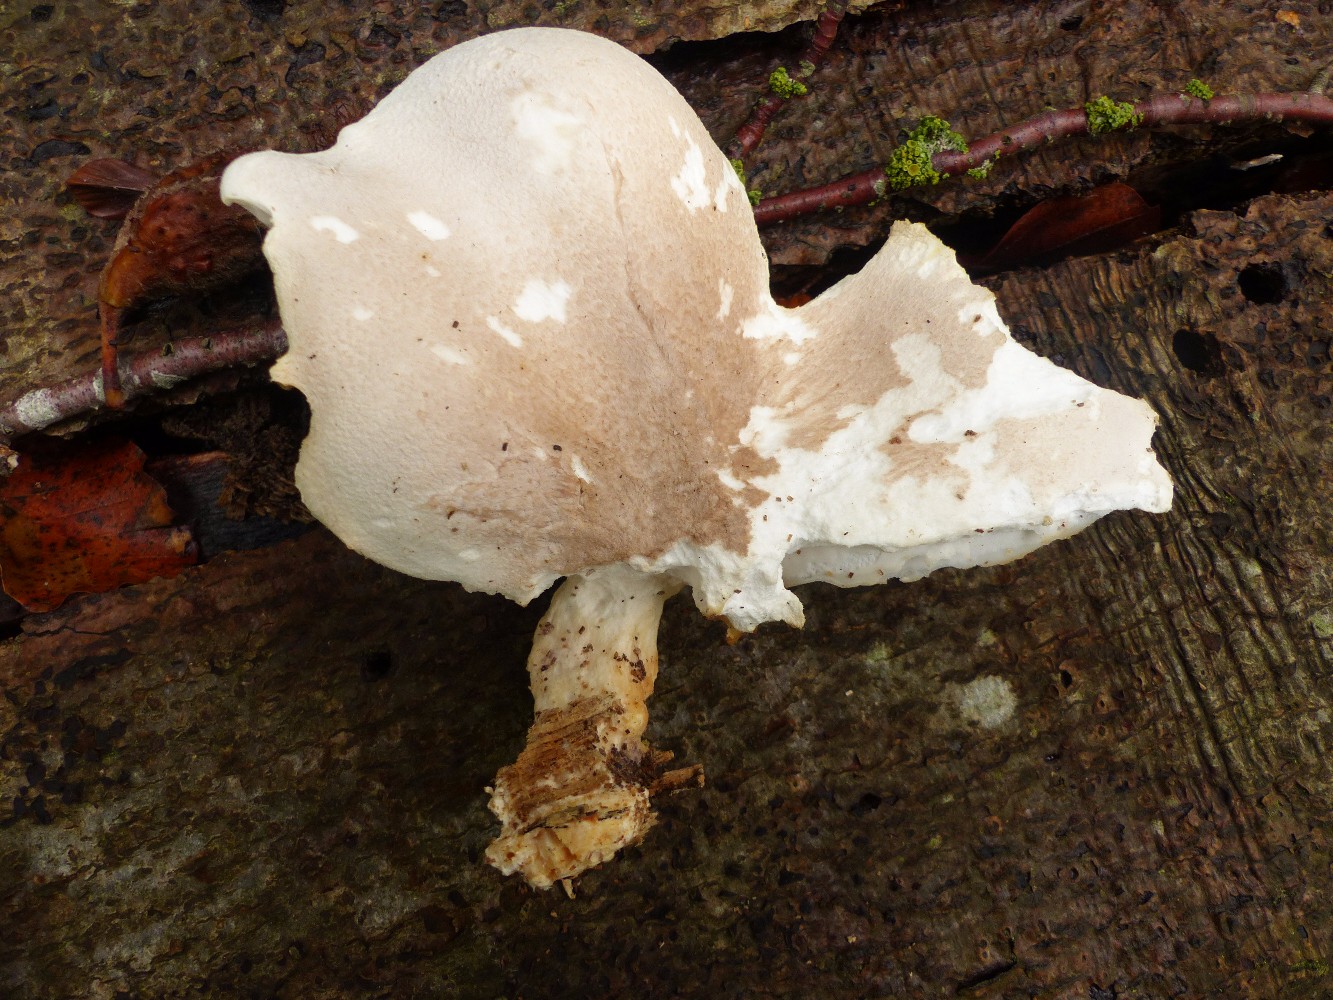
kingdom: Fungi
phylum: Basidiomycota
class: Agaricomycetes
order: Agaricales
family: Pleurotaceae
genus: Pleurotus
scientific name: Pleurotus dryinus
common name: korkagtig østershat
